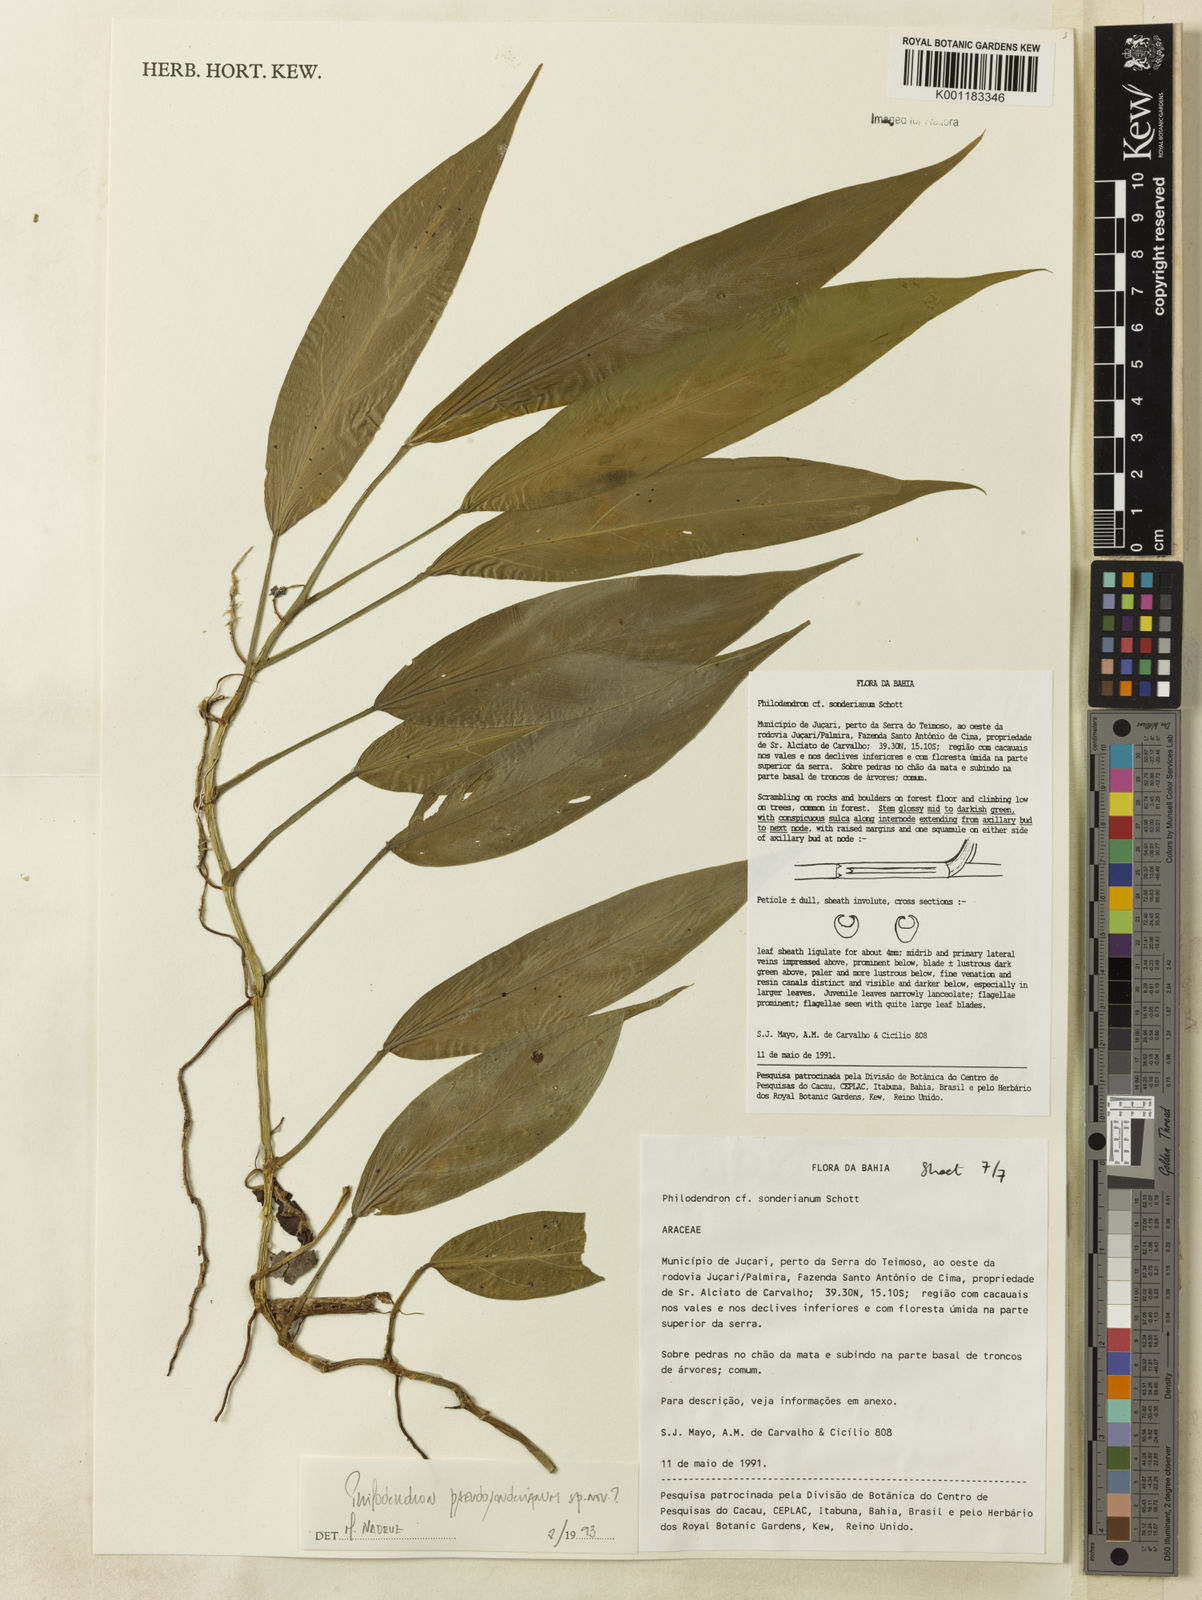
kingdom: Plantae
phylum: Tracheophyta
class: Liliopsida
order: Alismatales
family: Araceae
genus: Philodendron
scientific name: Philodendron
